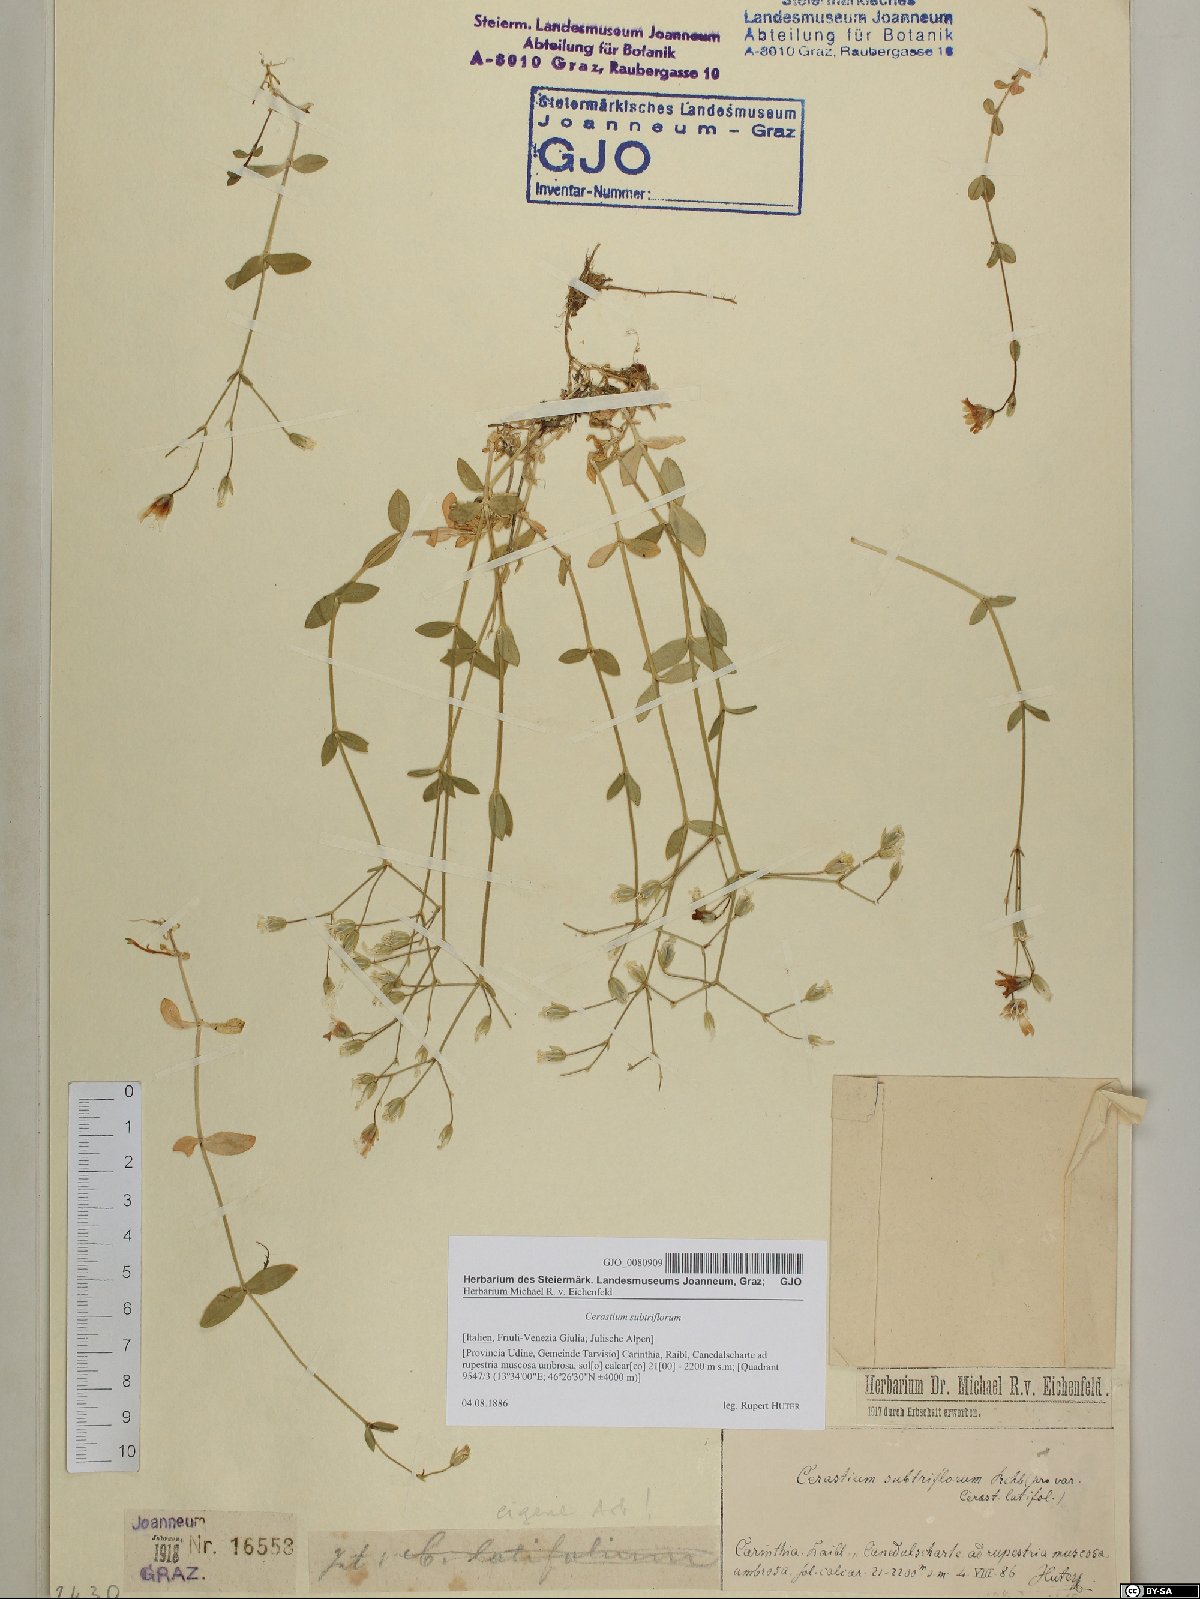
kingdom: Plantae
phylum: Tracheophyta
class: Magnoliopsida
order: Caryophyllales
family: Caryophyllaceae
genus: Cerastium
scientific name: Cerastium subtriflorum
